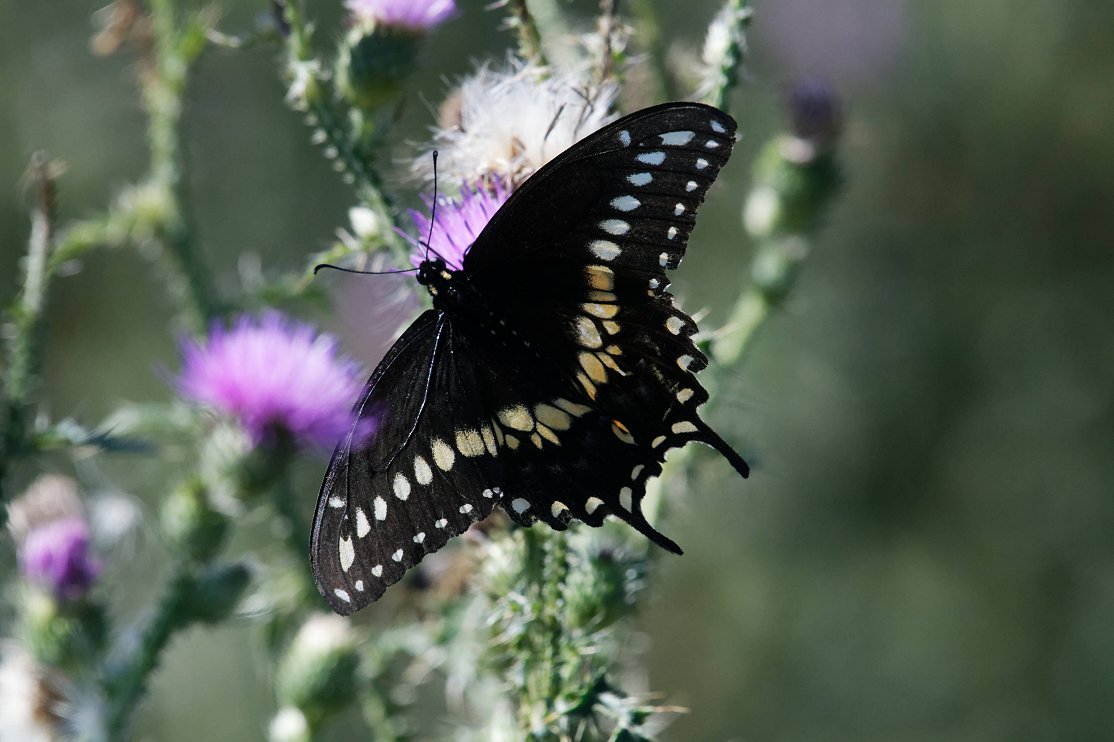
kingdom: Animalia
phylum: Arthropoda
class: Insecta
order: Lepidoptera
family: Papilionidae
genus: Papilio
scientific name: Papilio polyxenes
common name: Black Swallowtail
